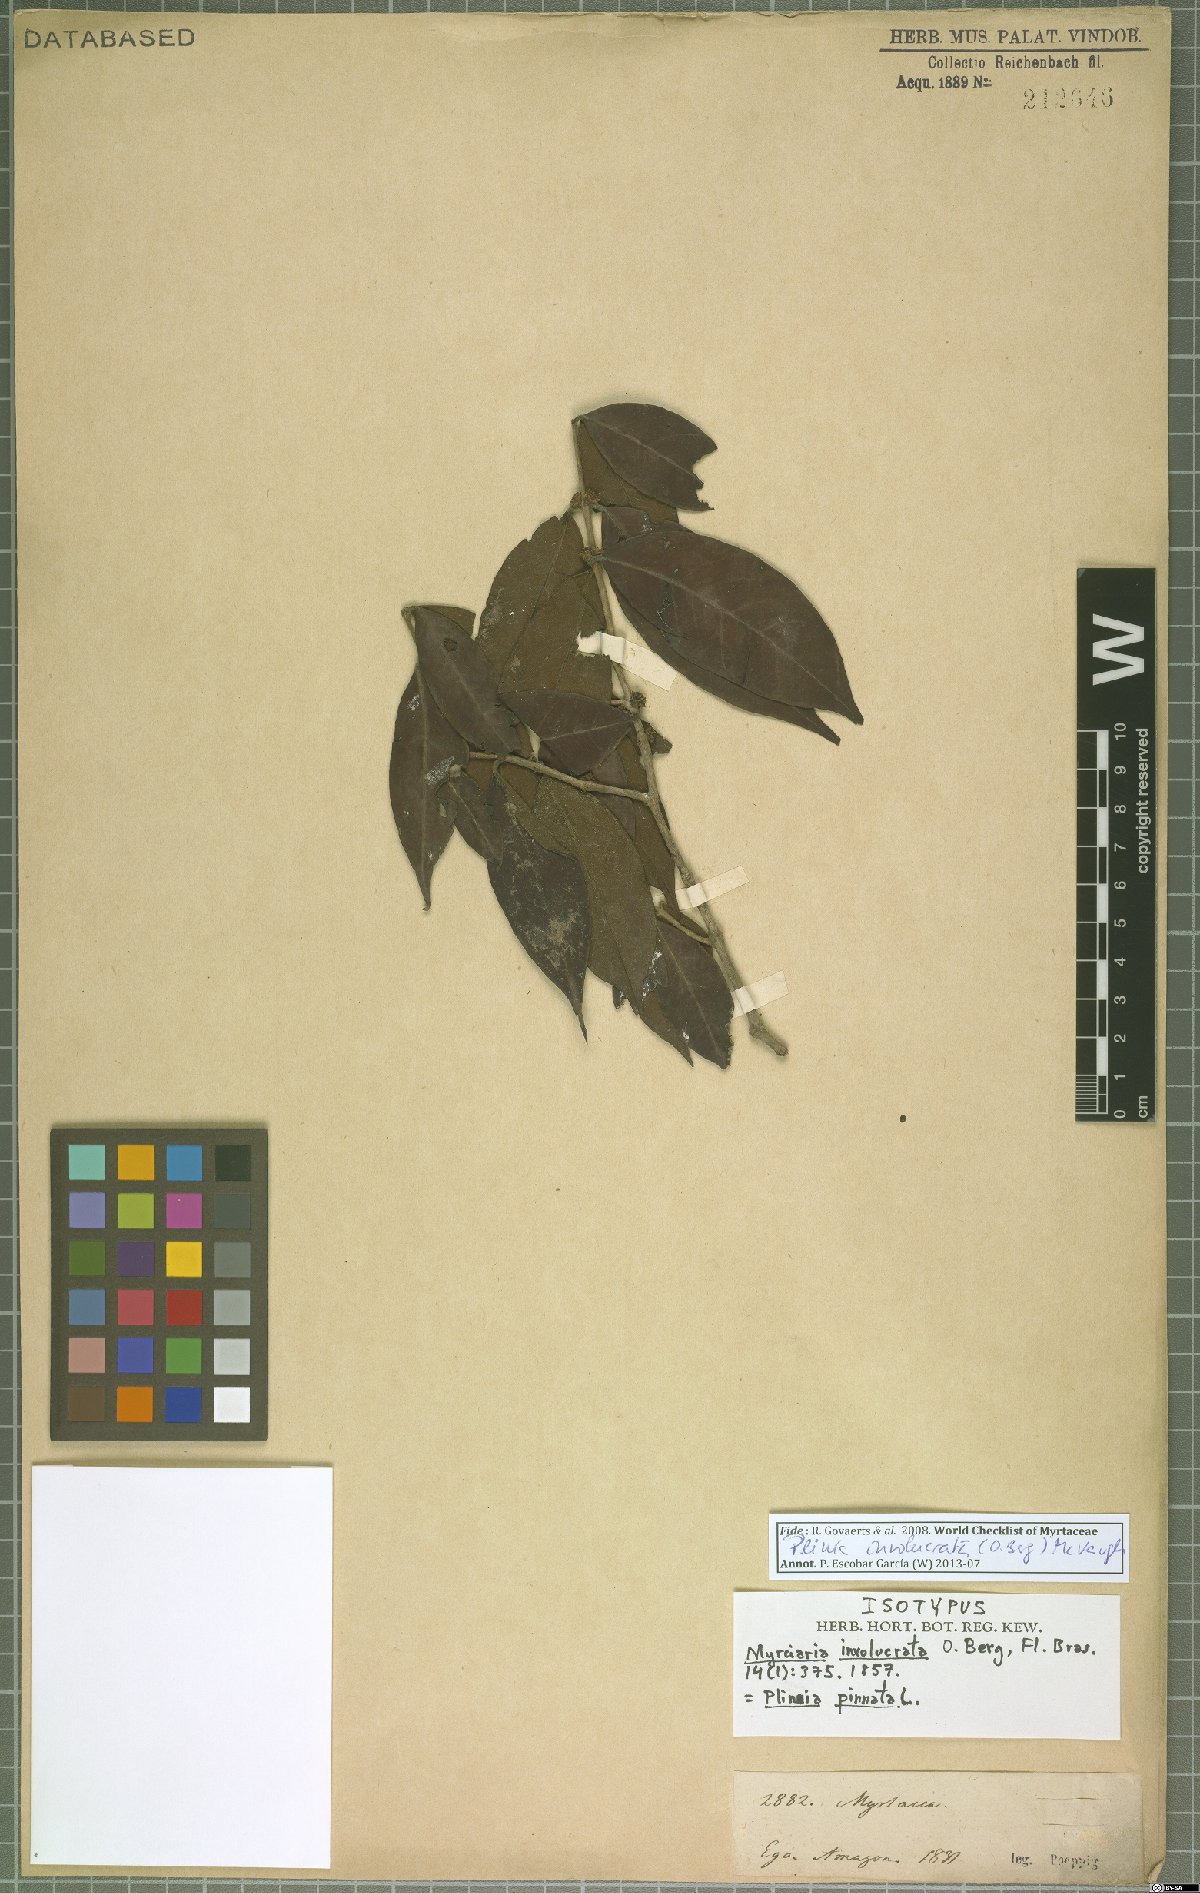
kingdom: Plantae
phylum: Tracheophyta
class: Magnoliopsida
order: Myrtales
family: Myrtaceae
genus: Plinia
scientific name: Plinia involucrata
